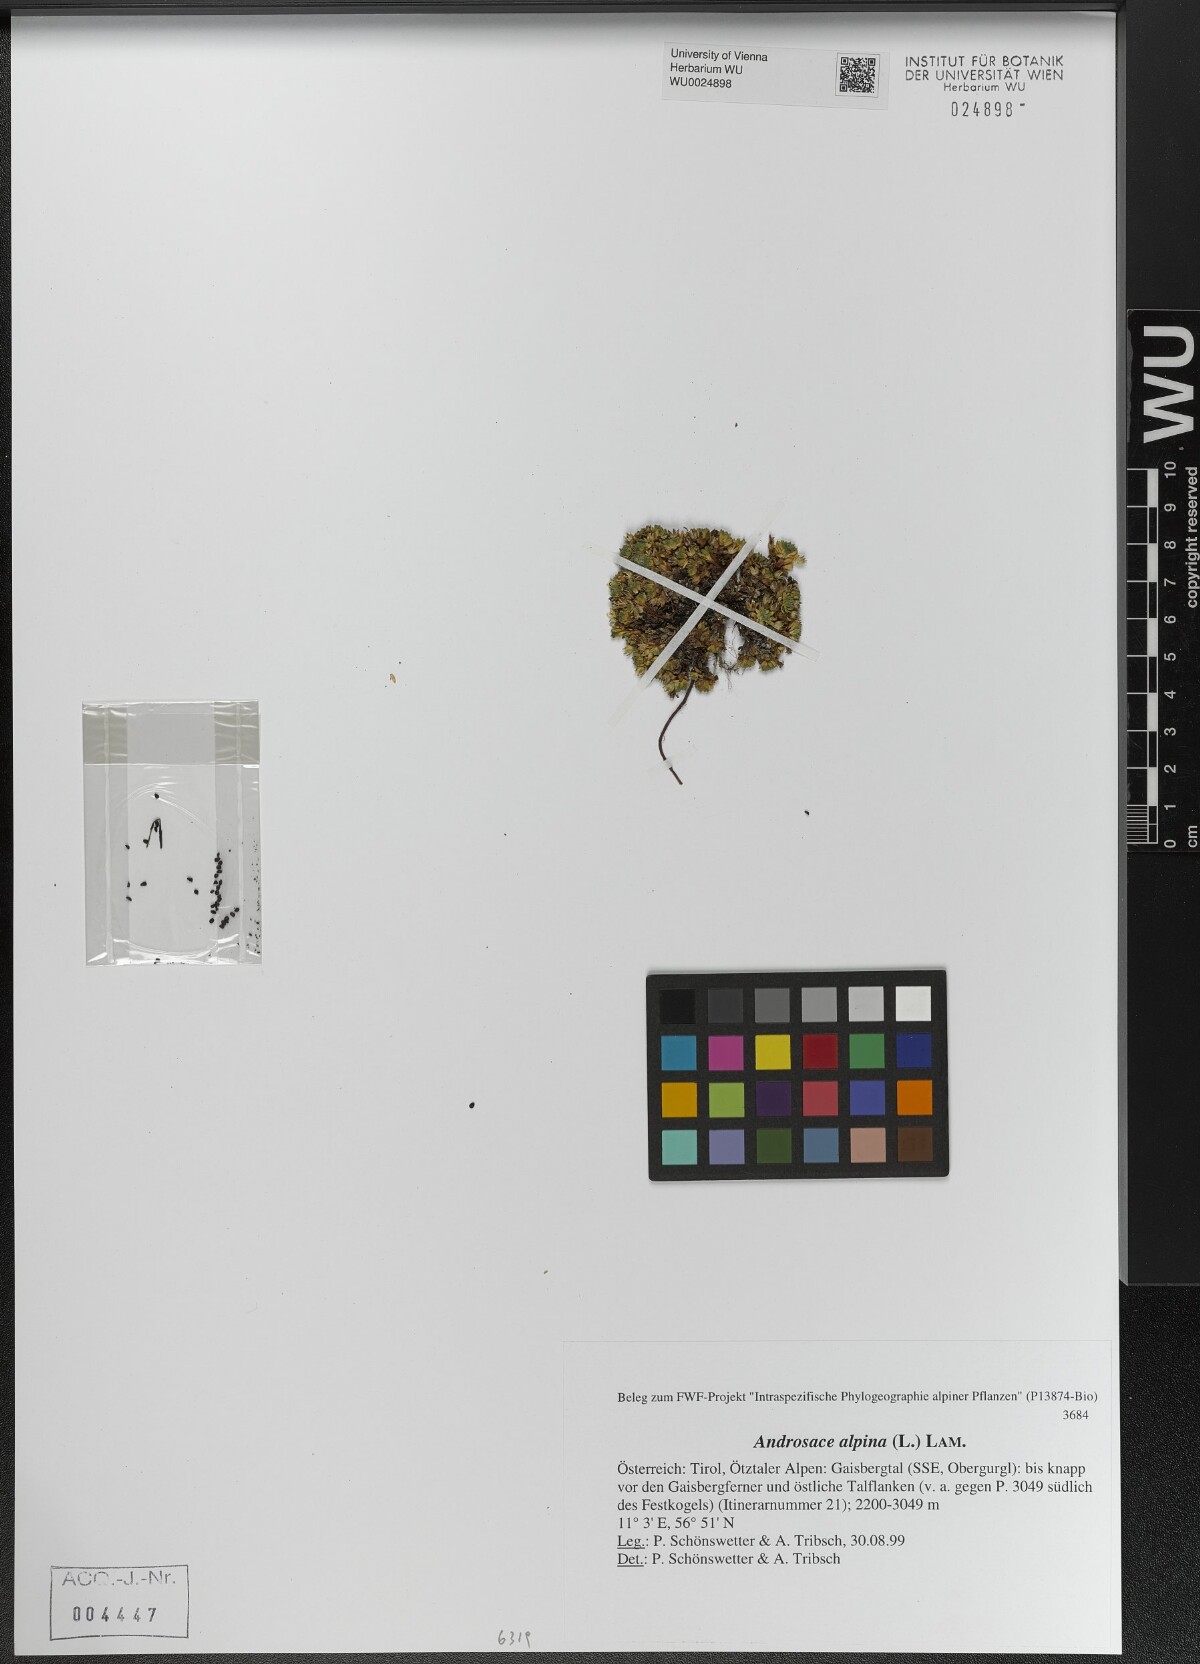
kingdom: Plantae
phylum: Tracheophyta
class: Magnoliopsida
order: Ericales
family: Primulaceae
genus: Androsace
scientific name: Androsace alpina
